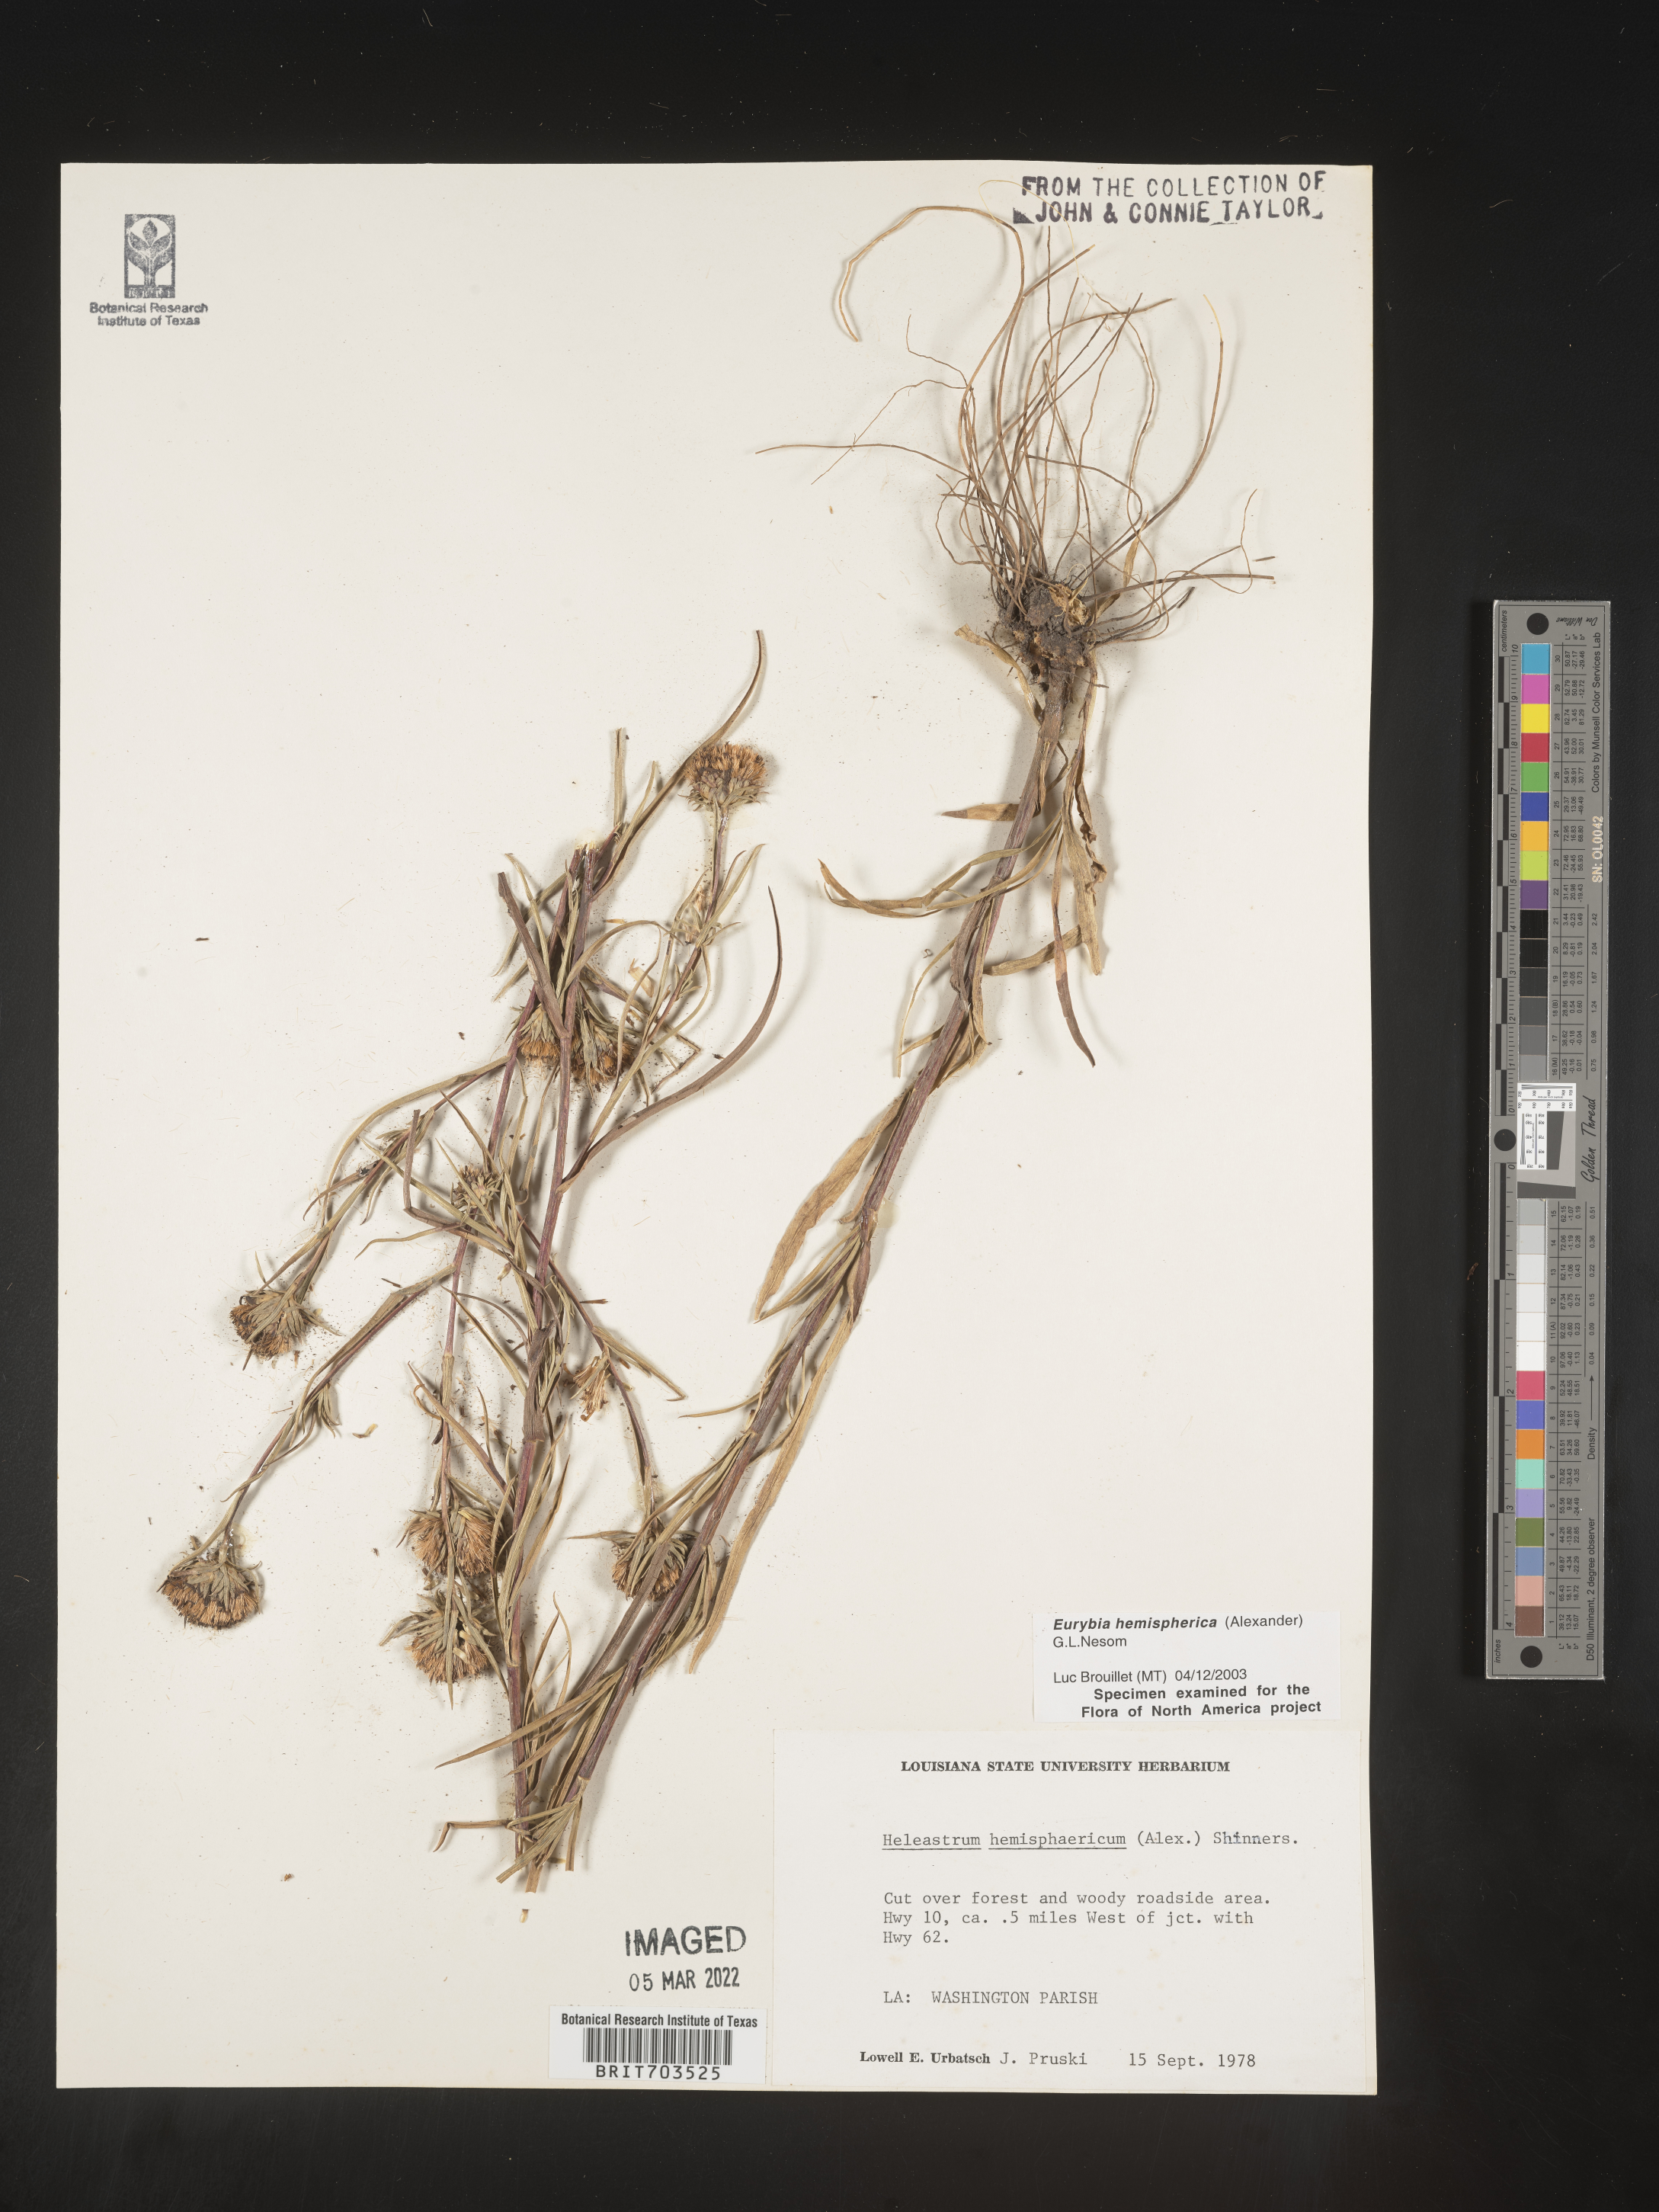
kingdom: Plantae
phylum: Tracheophyta
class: Magnoliopsida
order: Asterales
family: Asteraceae
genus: Eurybia
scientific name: Eurybia hemispherica
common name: Showy aster
